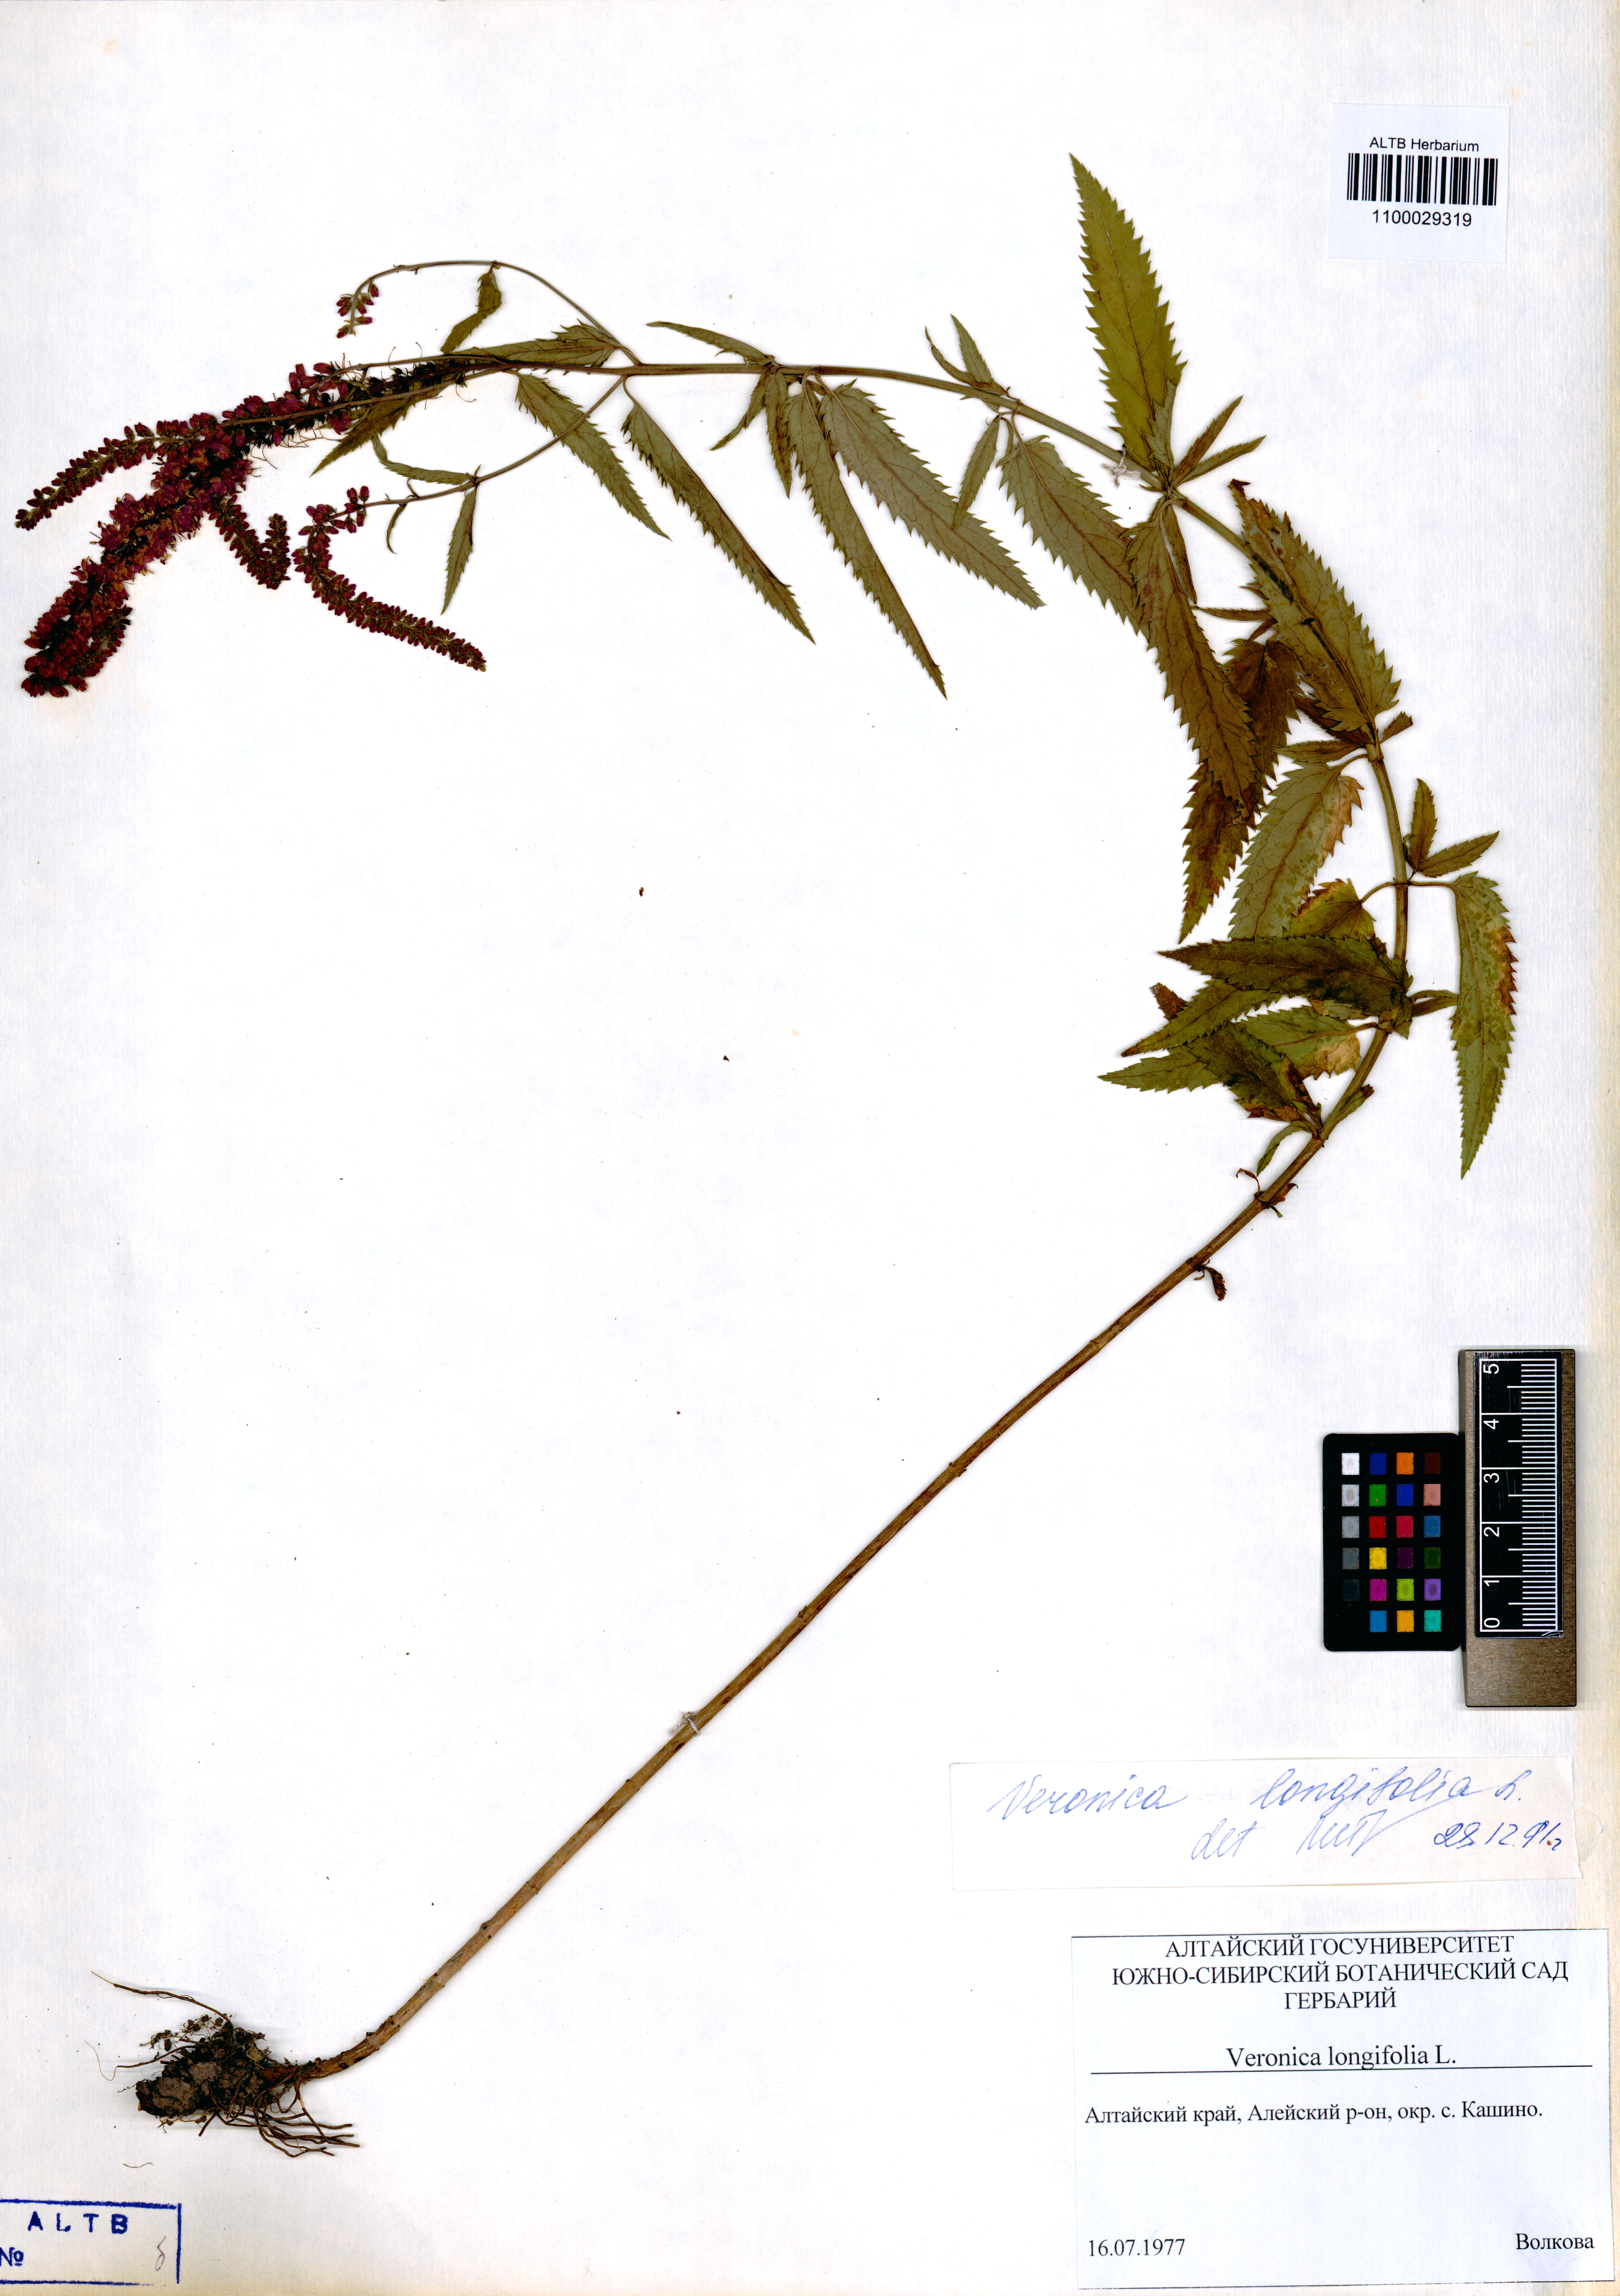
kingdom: Plantae
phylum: Tracheophyta
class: Magnoliopsida
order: Lamiales
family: Plantaginaceae
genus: Veronica
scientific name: Veronica longifolia
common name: Garden speedwell
